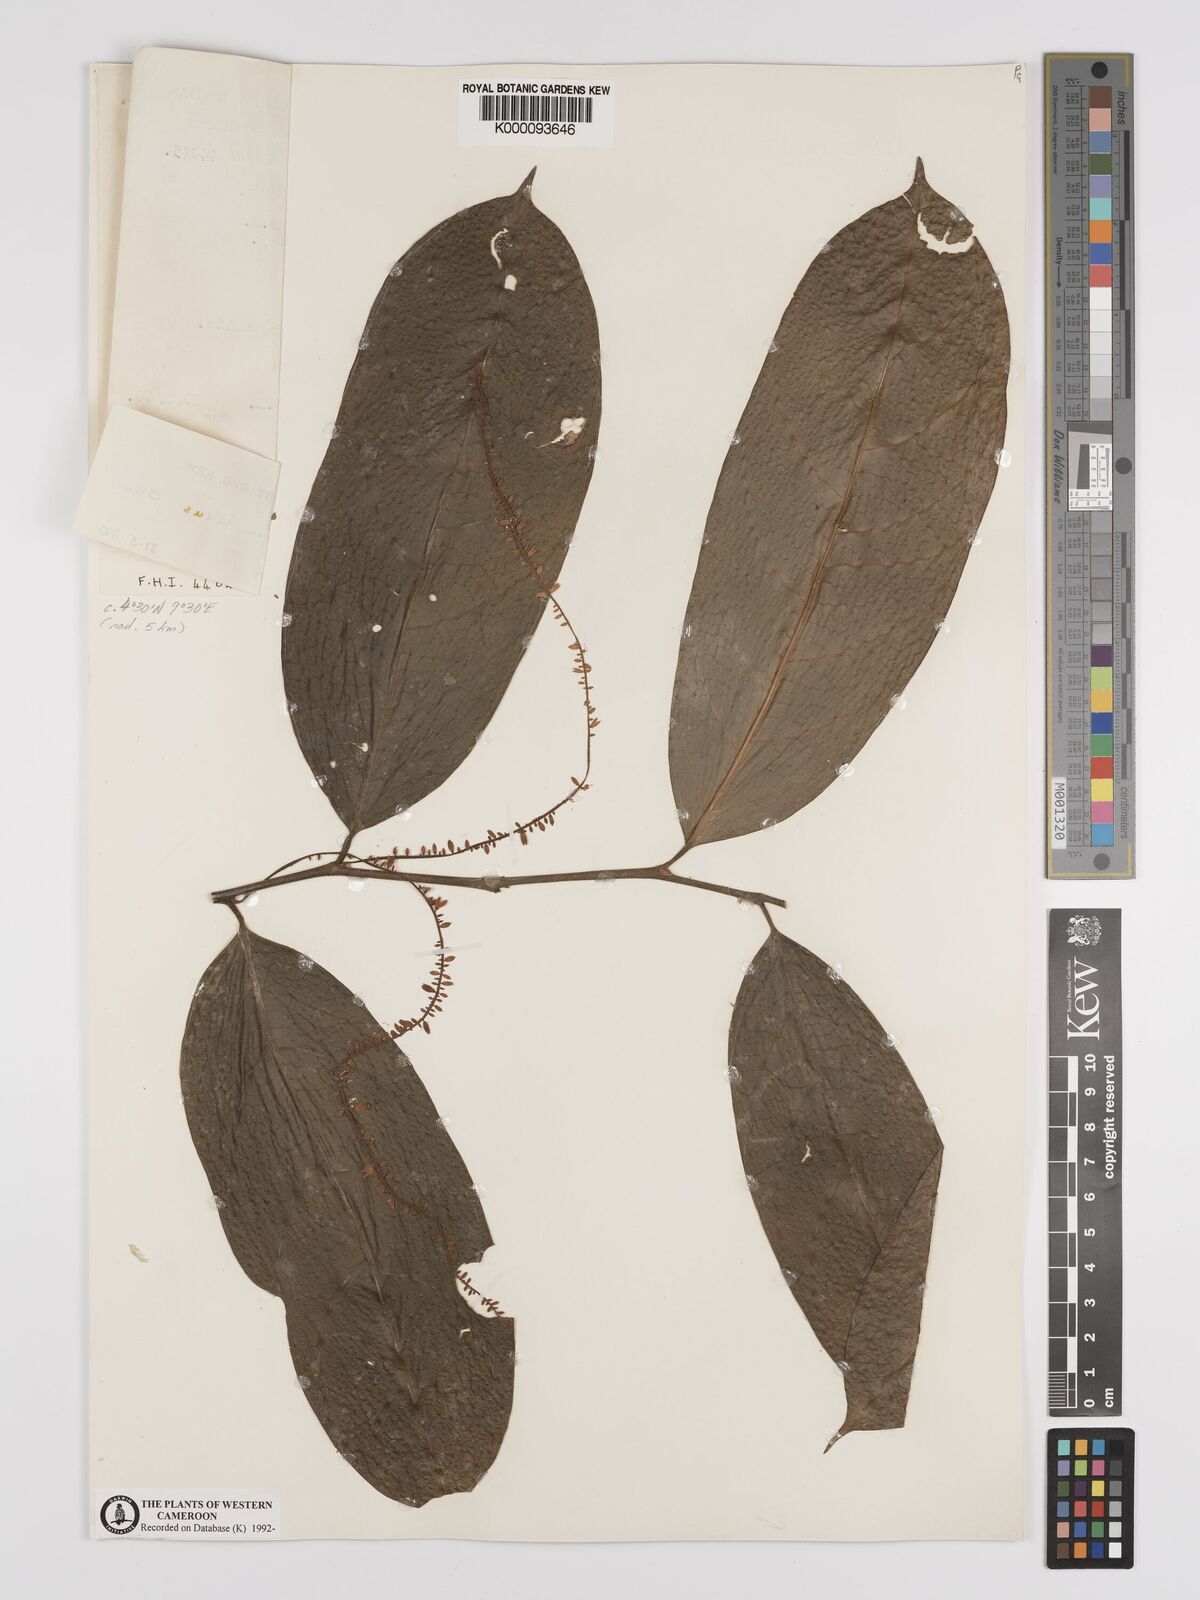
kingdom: Plantae
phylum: Tracheophyta
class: Magnoliopsida
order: Icacinales
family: Icacinaceae
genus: Vadensea
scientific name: Vadensea tenuifolia
